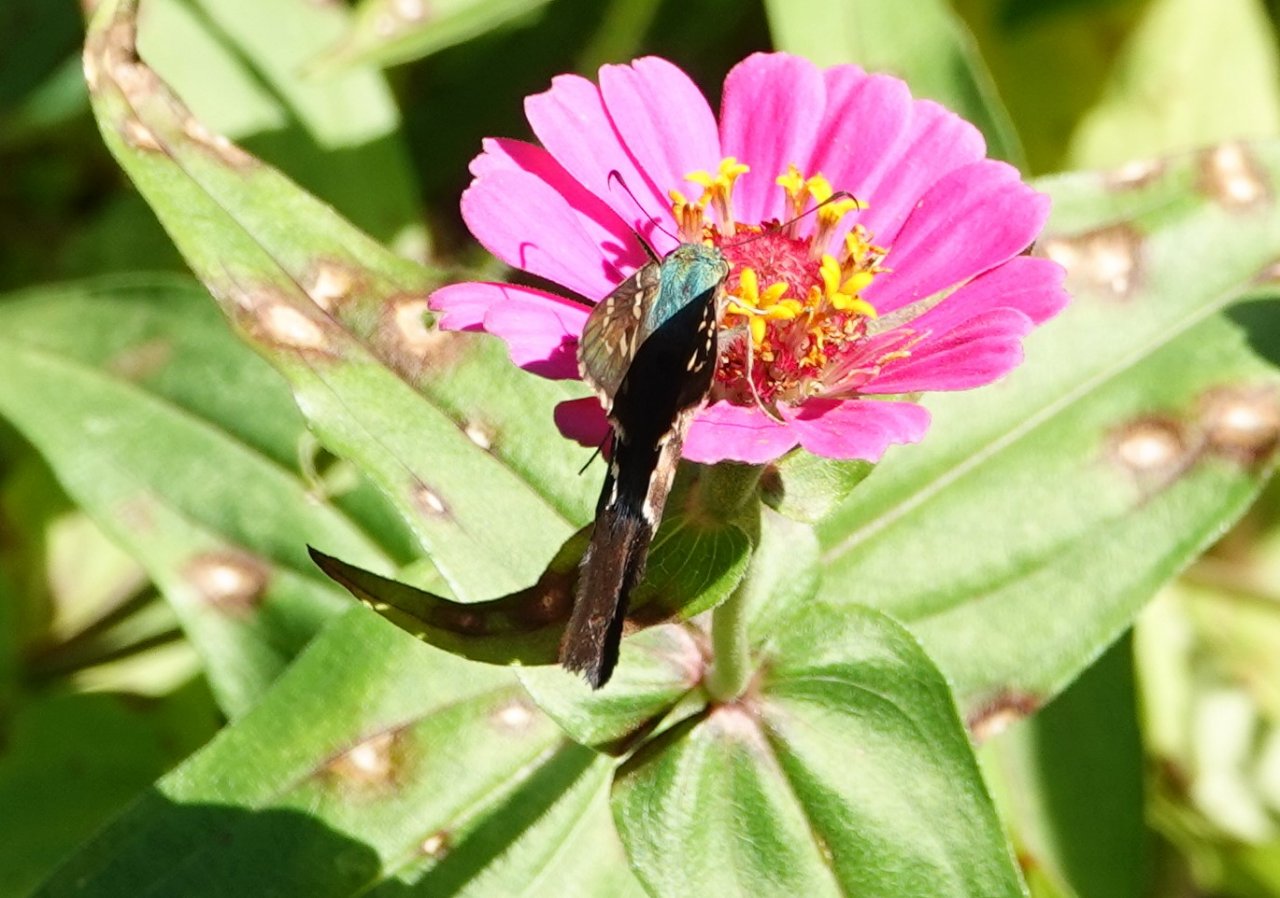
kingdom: Animalia
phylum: Arthropoda
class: Insecta
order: Lepidoptera
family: Hesperiidae
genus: Urbanus
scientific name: Urbanus proteus
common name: Long-tailed Skipper
